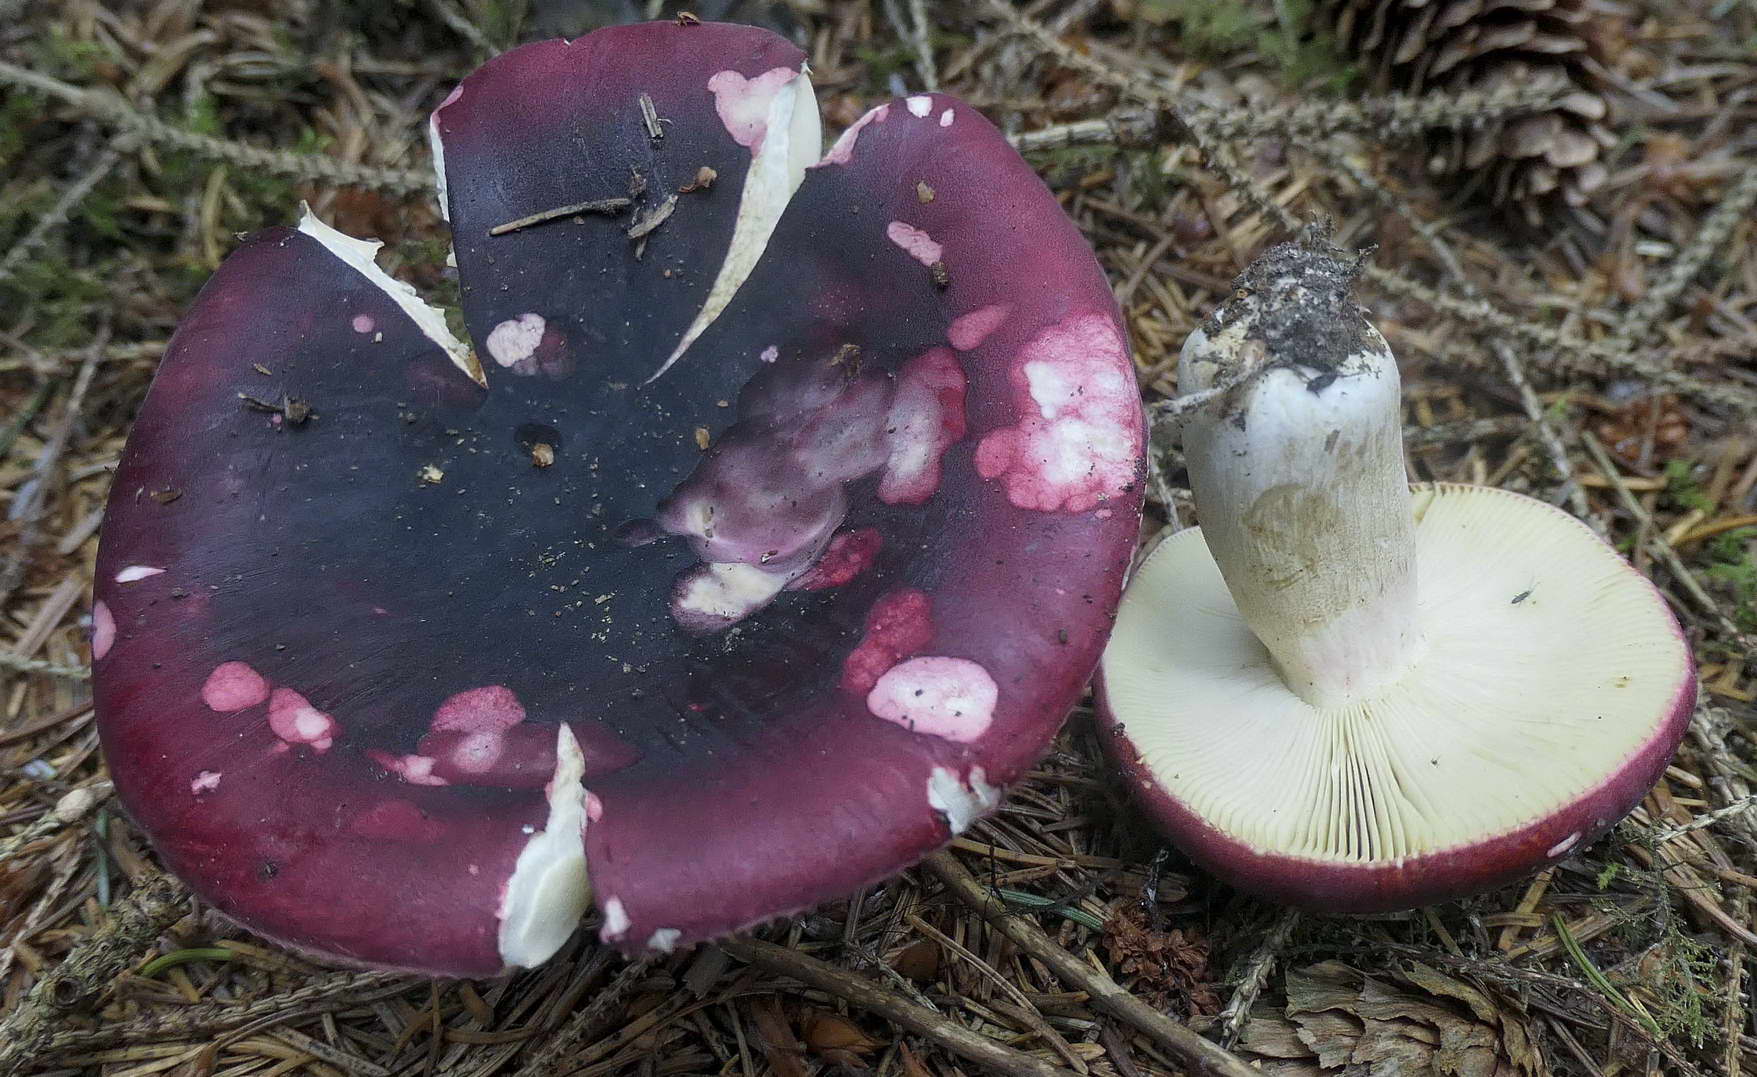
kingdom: Fungi
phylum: Basidiomycota
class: Agaricomycetes
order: Russulales
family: Russulaceae
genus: Russula
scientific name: Russula xerampelina
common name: hummer-skørhat
